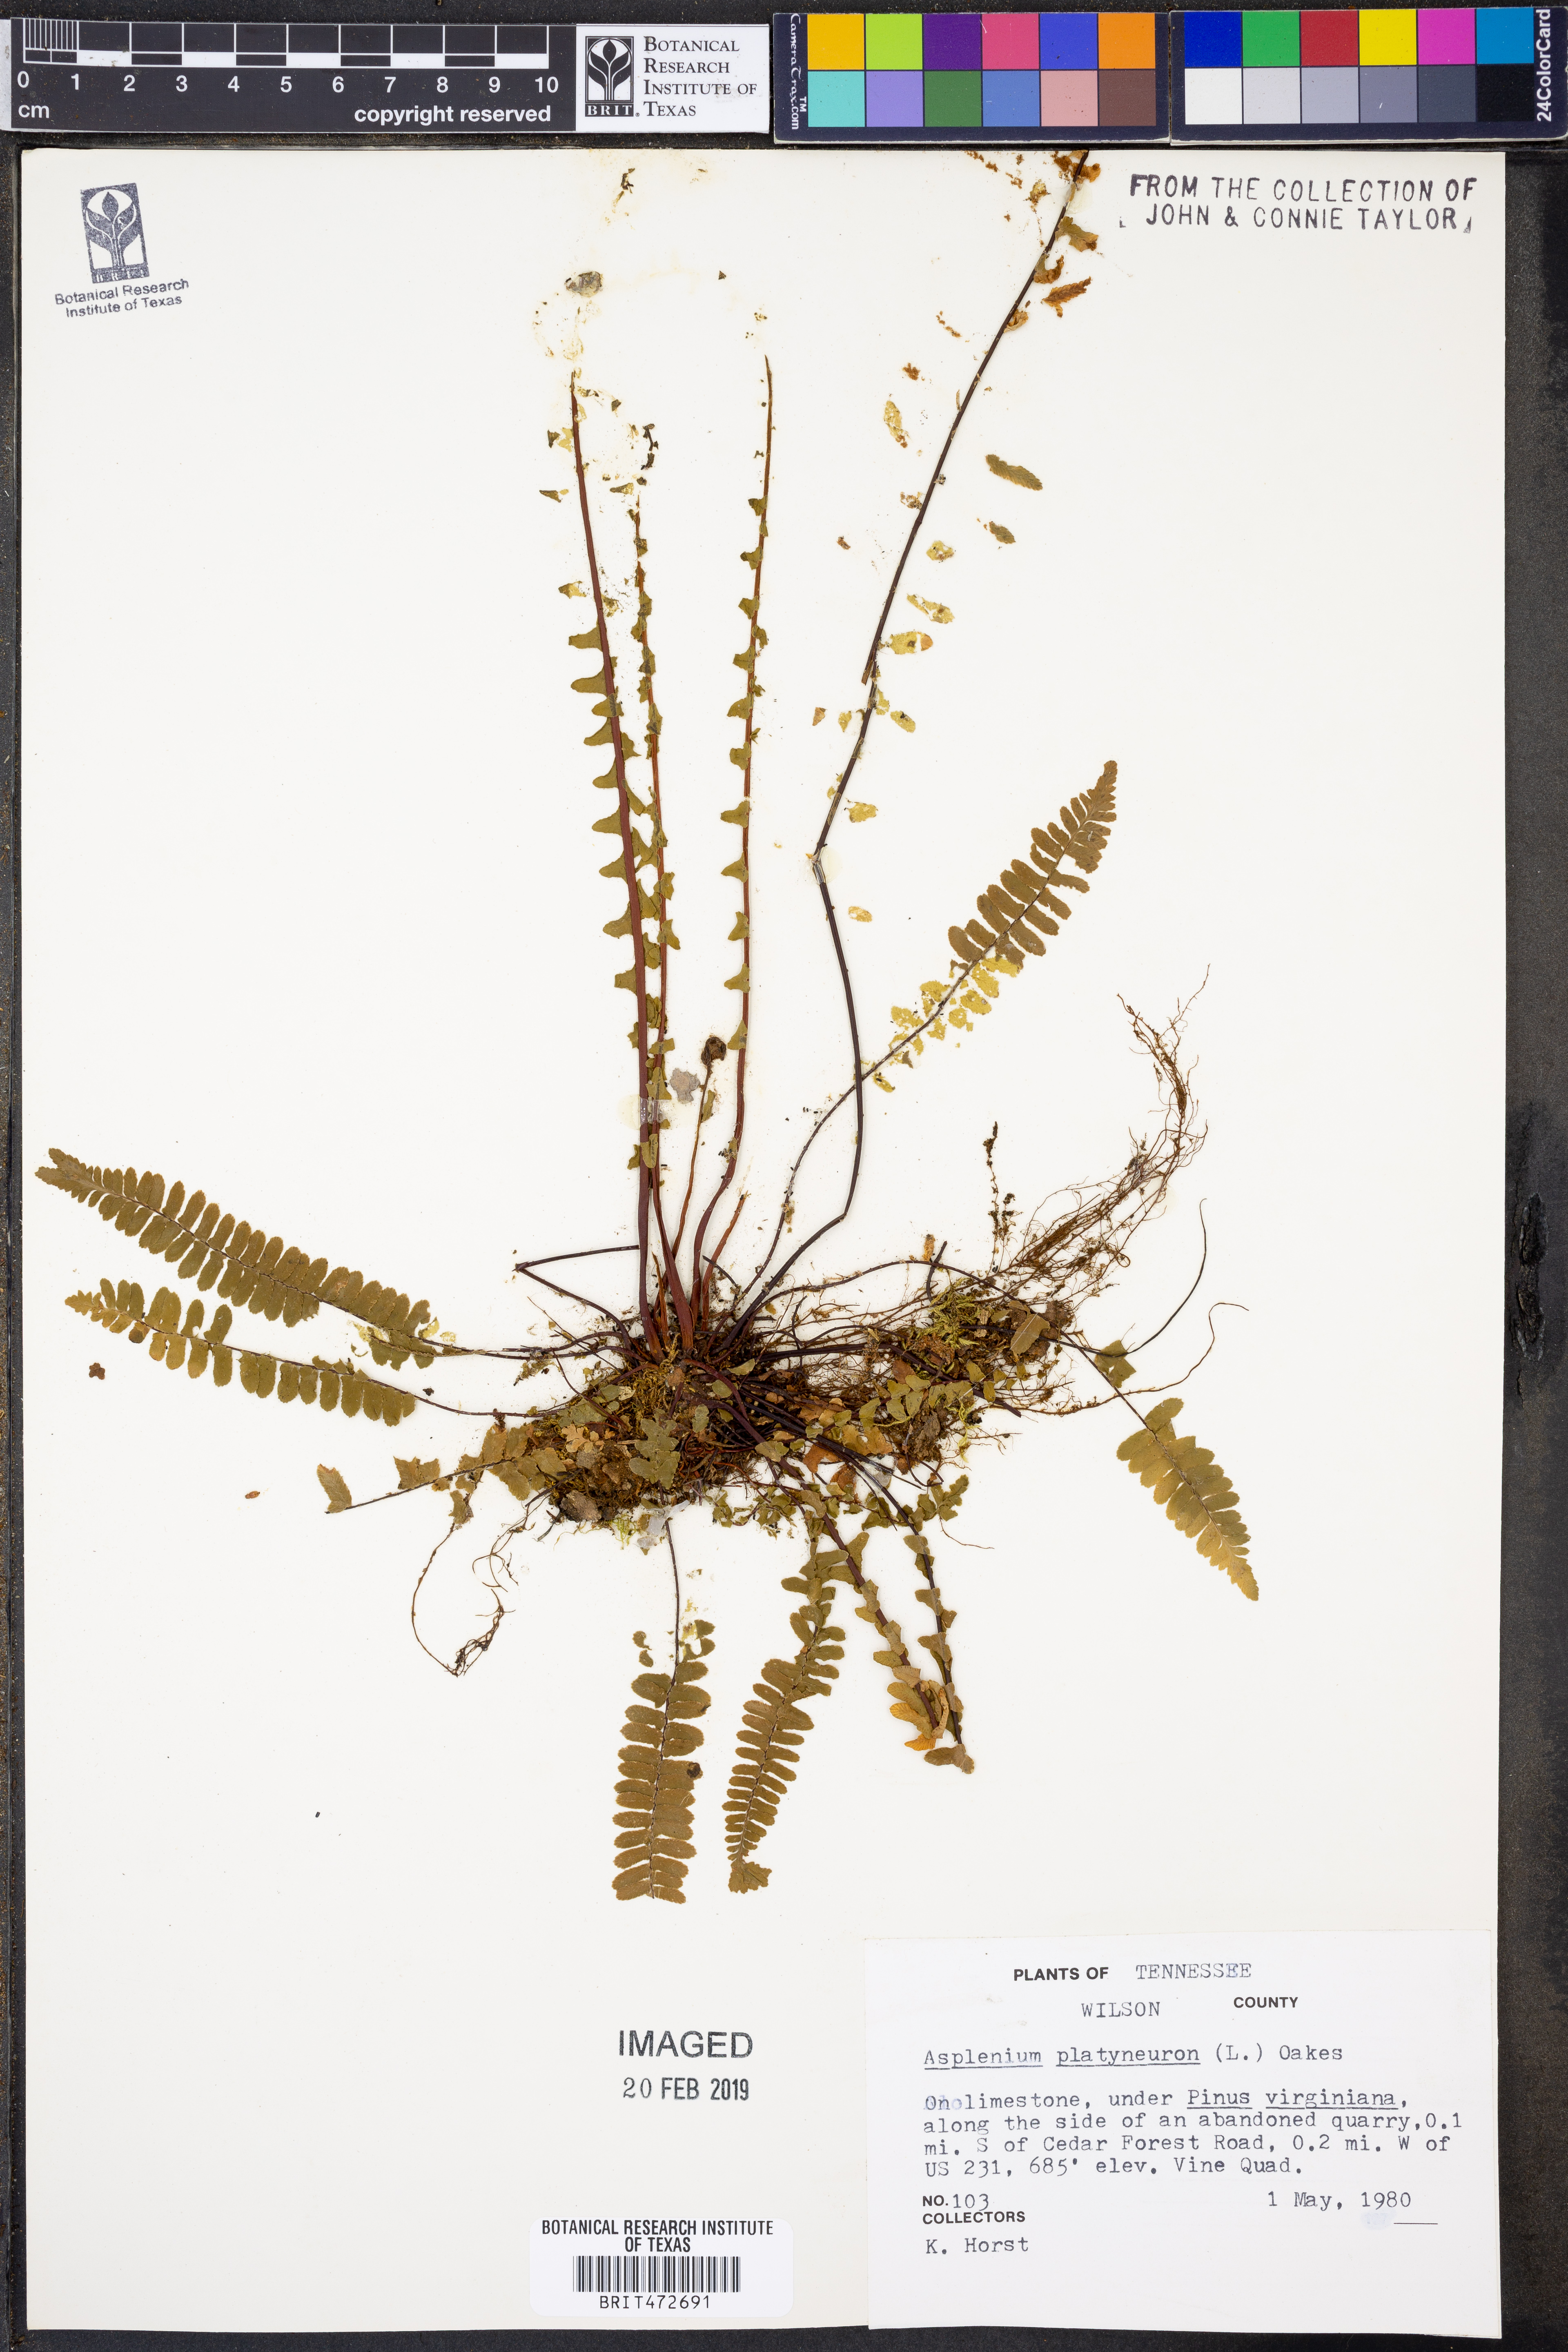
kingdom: Plantae
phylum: Tracheophyta
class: Polypodiopsida
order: Polypodiales
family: Aspleniaceae
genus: Asplenium
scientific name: Asplenium platyneuron
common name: Ebony spleenwort
